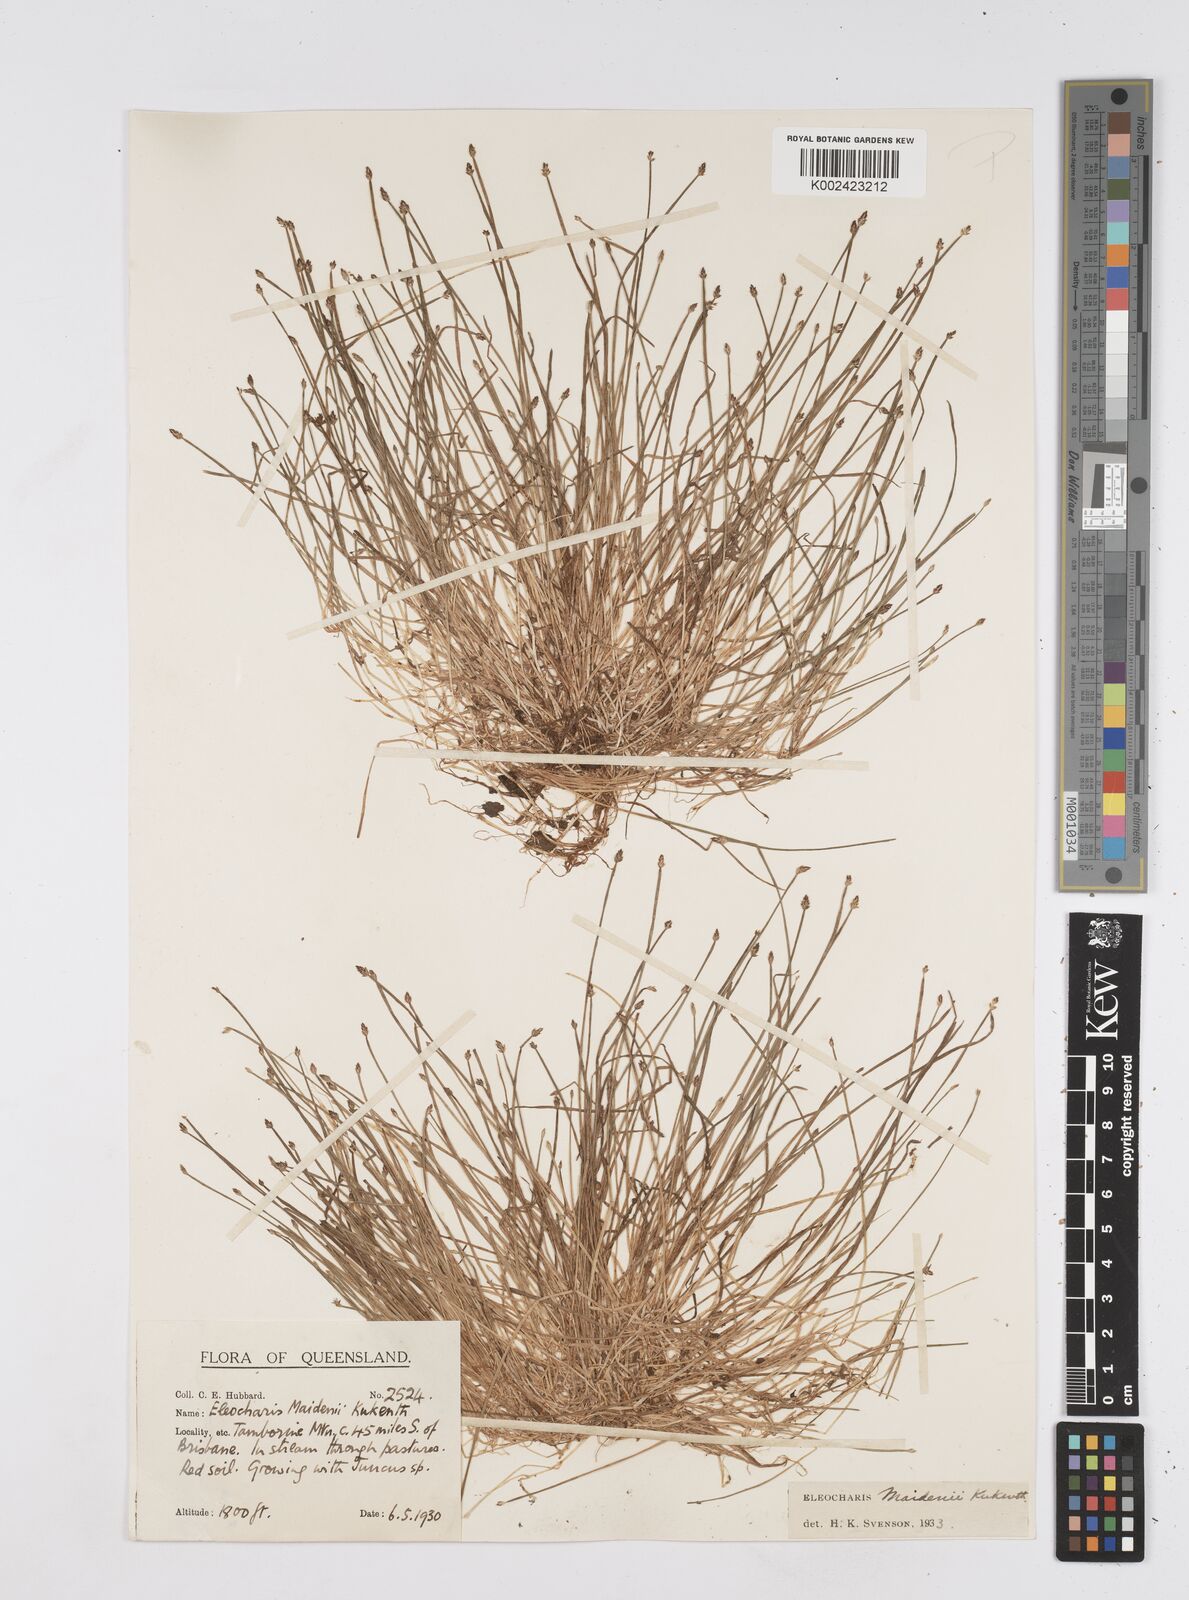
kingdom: Plantae
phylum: Tracheophyta
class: Liliopsida
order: Poales
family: Cyperaceae
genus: Eleocharis
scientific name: Eleocharis minuta
